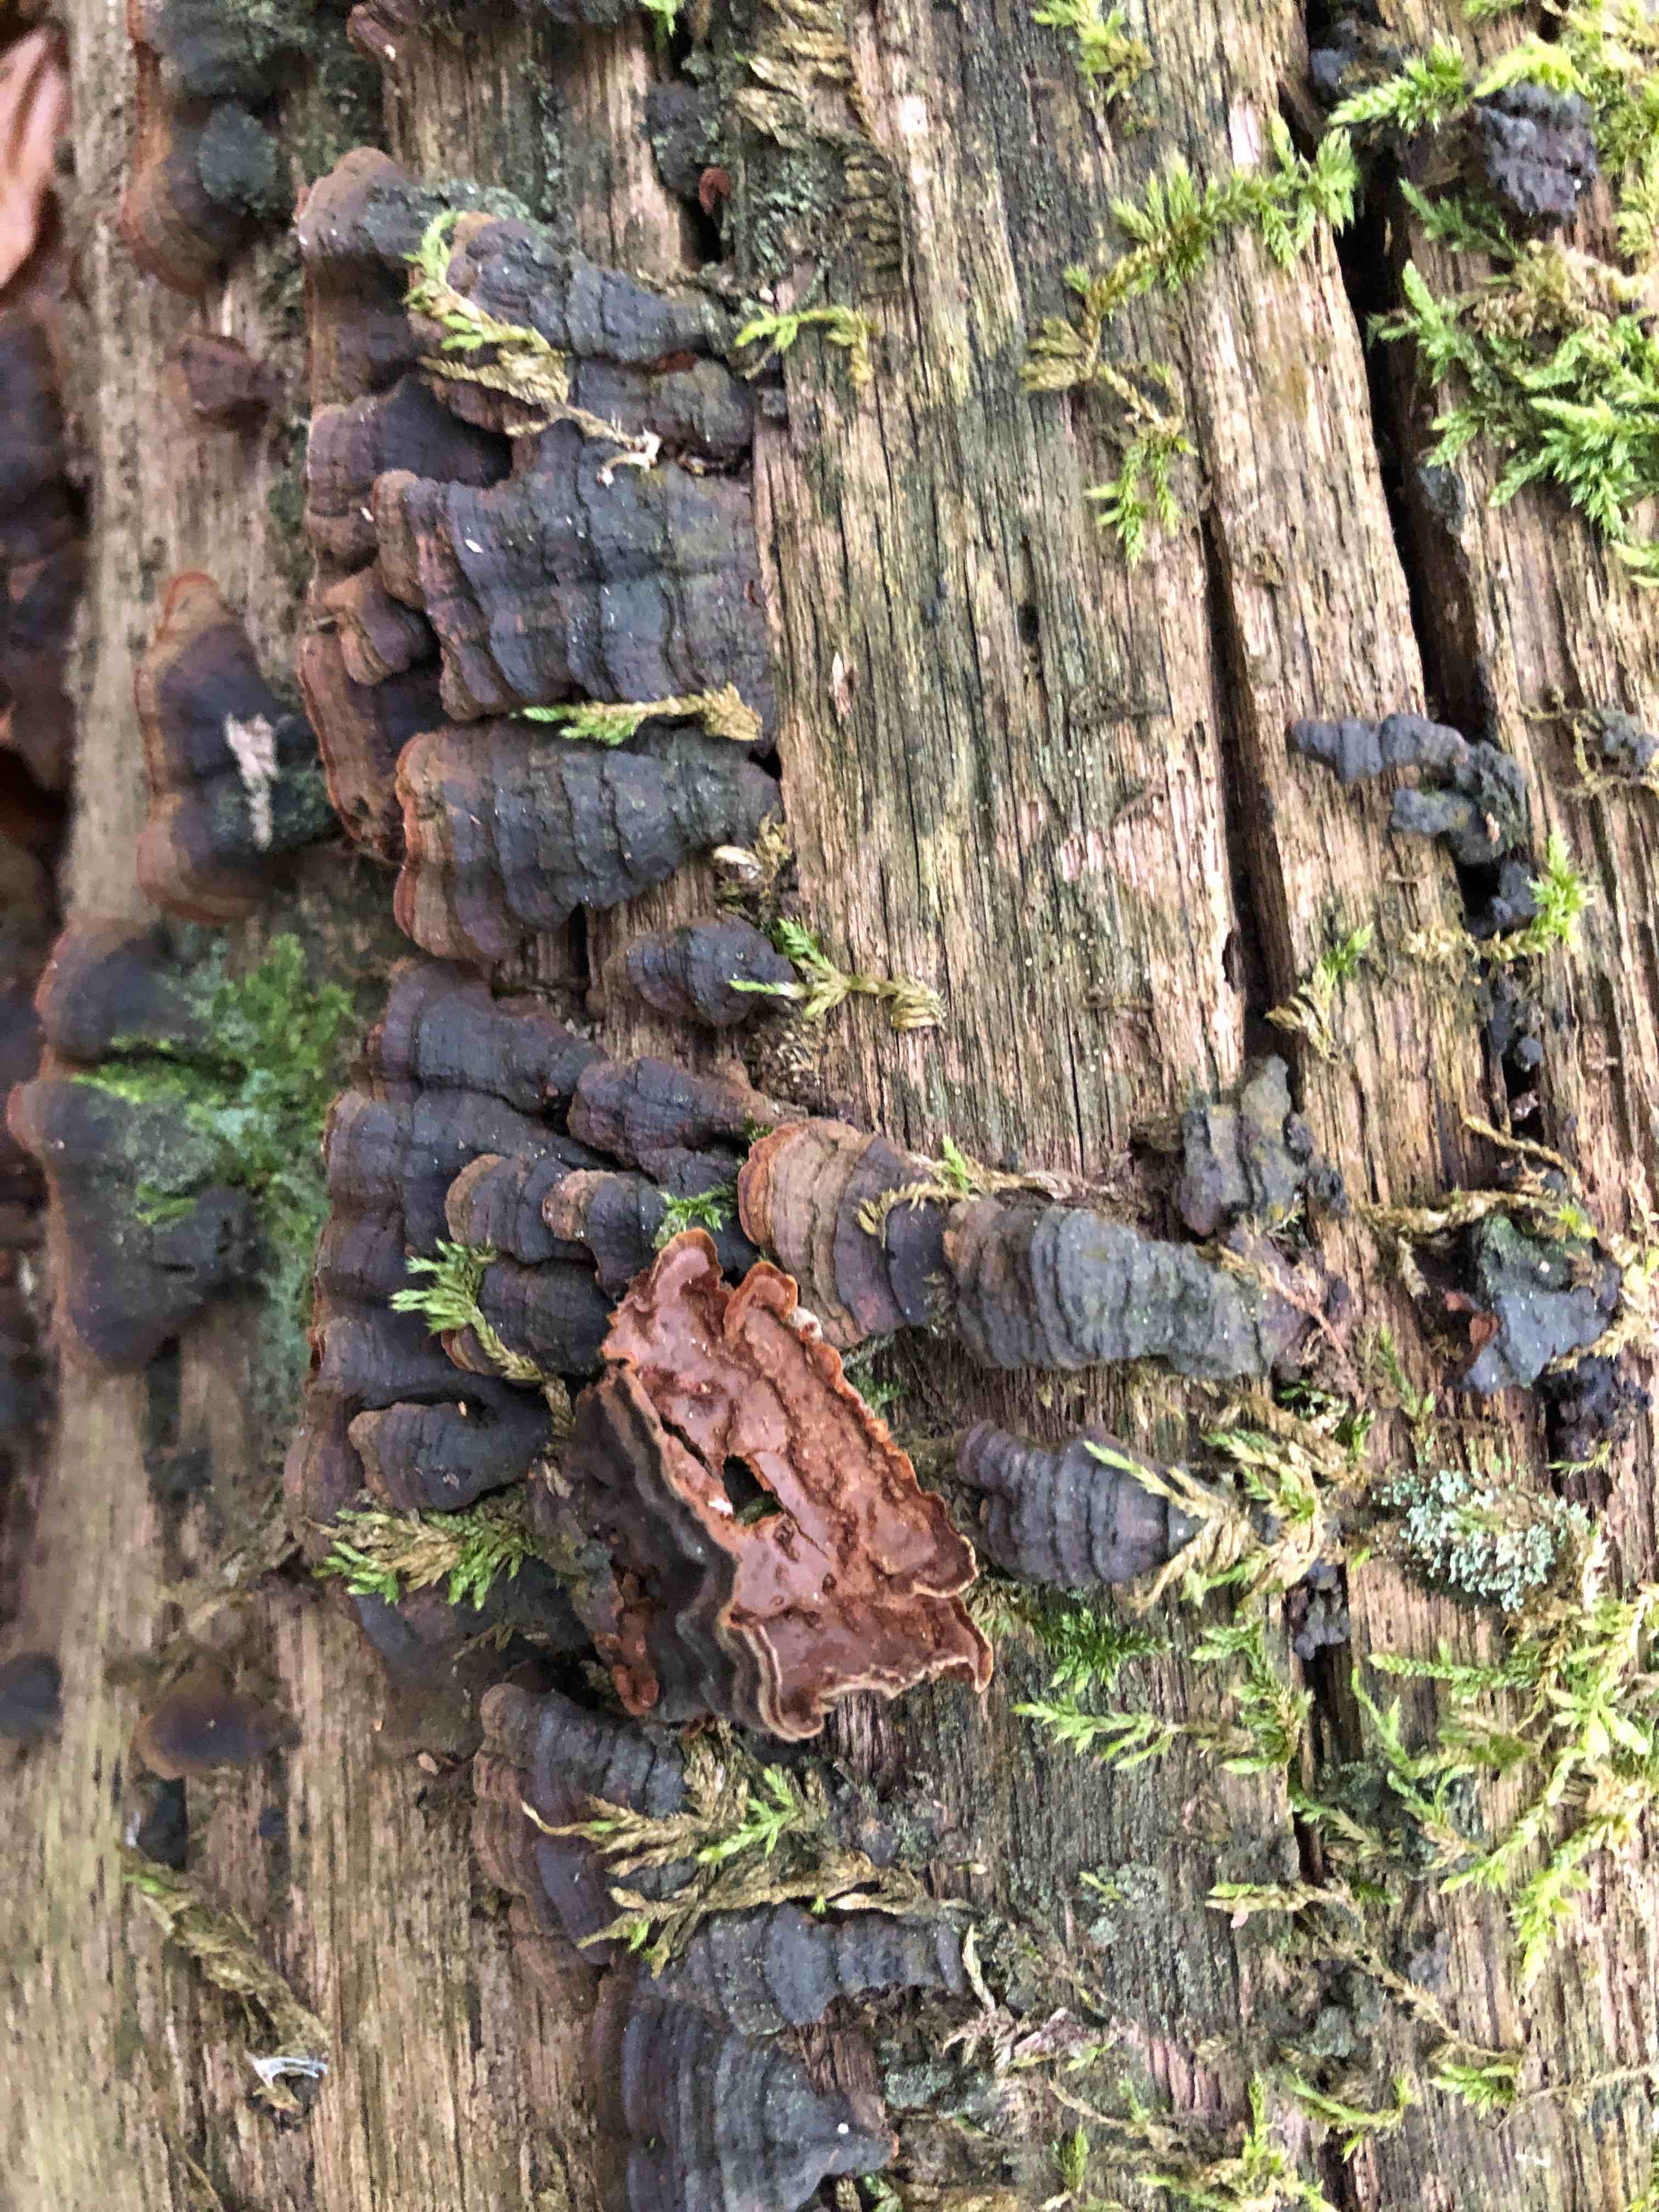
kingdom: Fungi
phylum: Basidiomycota
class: Agaricomycetes
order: Hymenochaetales
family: Hymenochaetaceae
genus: Hymenochaete
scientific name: Hymenochaete rubiginosa
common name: stiv ruslædersvamp
